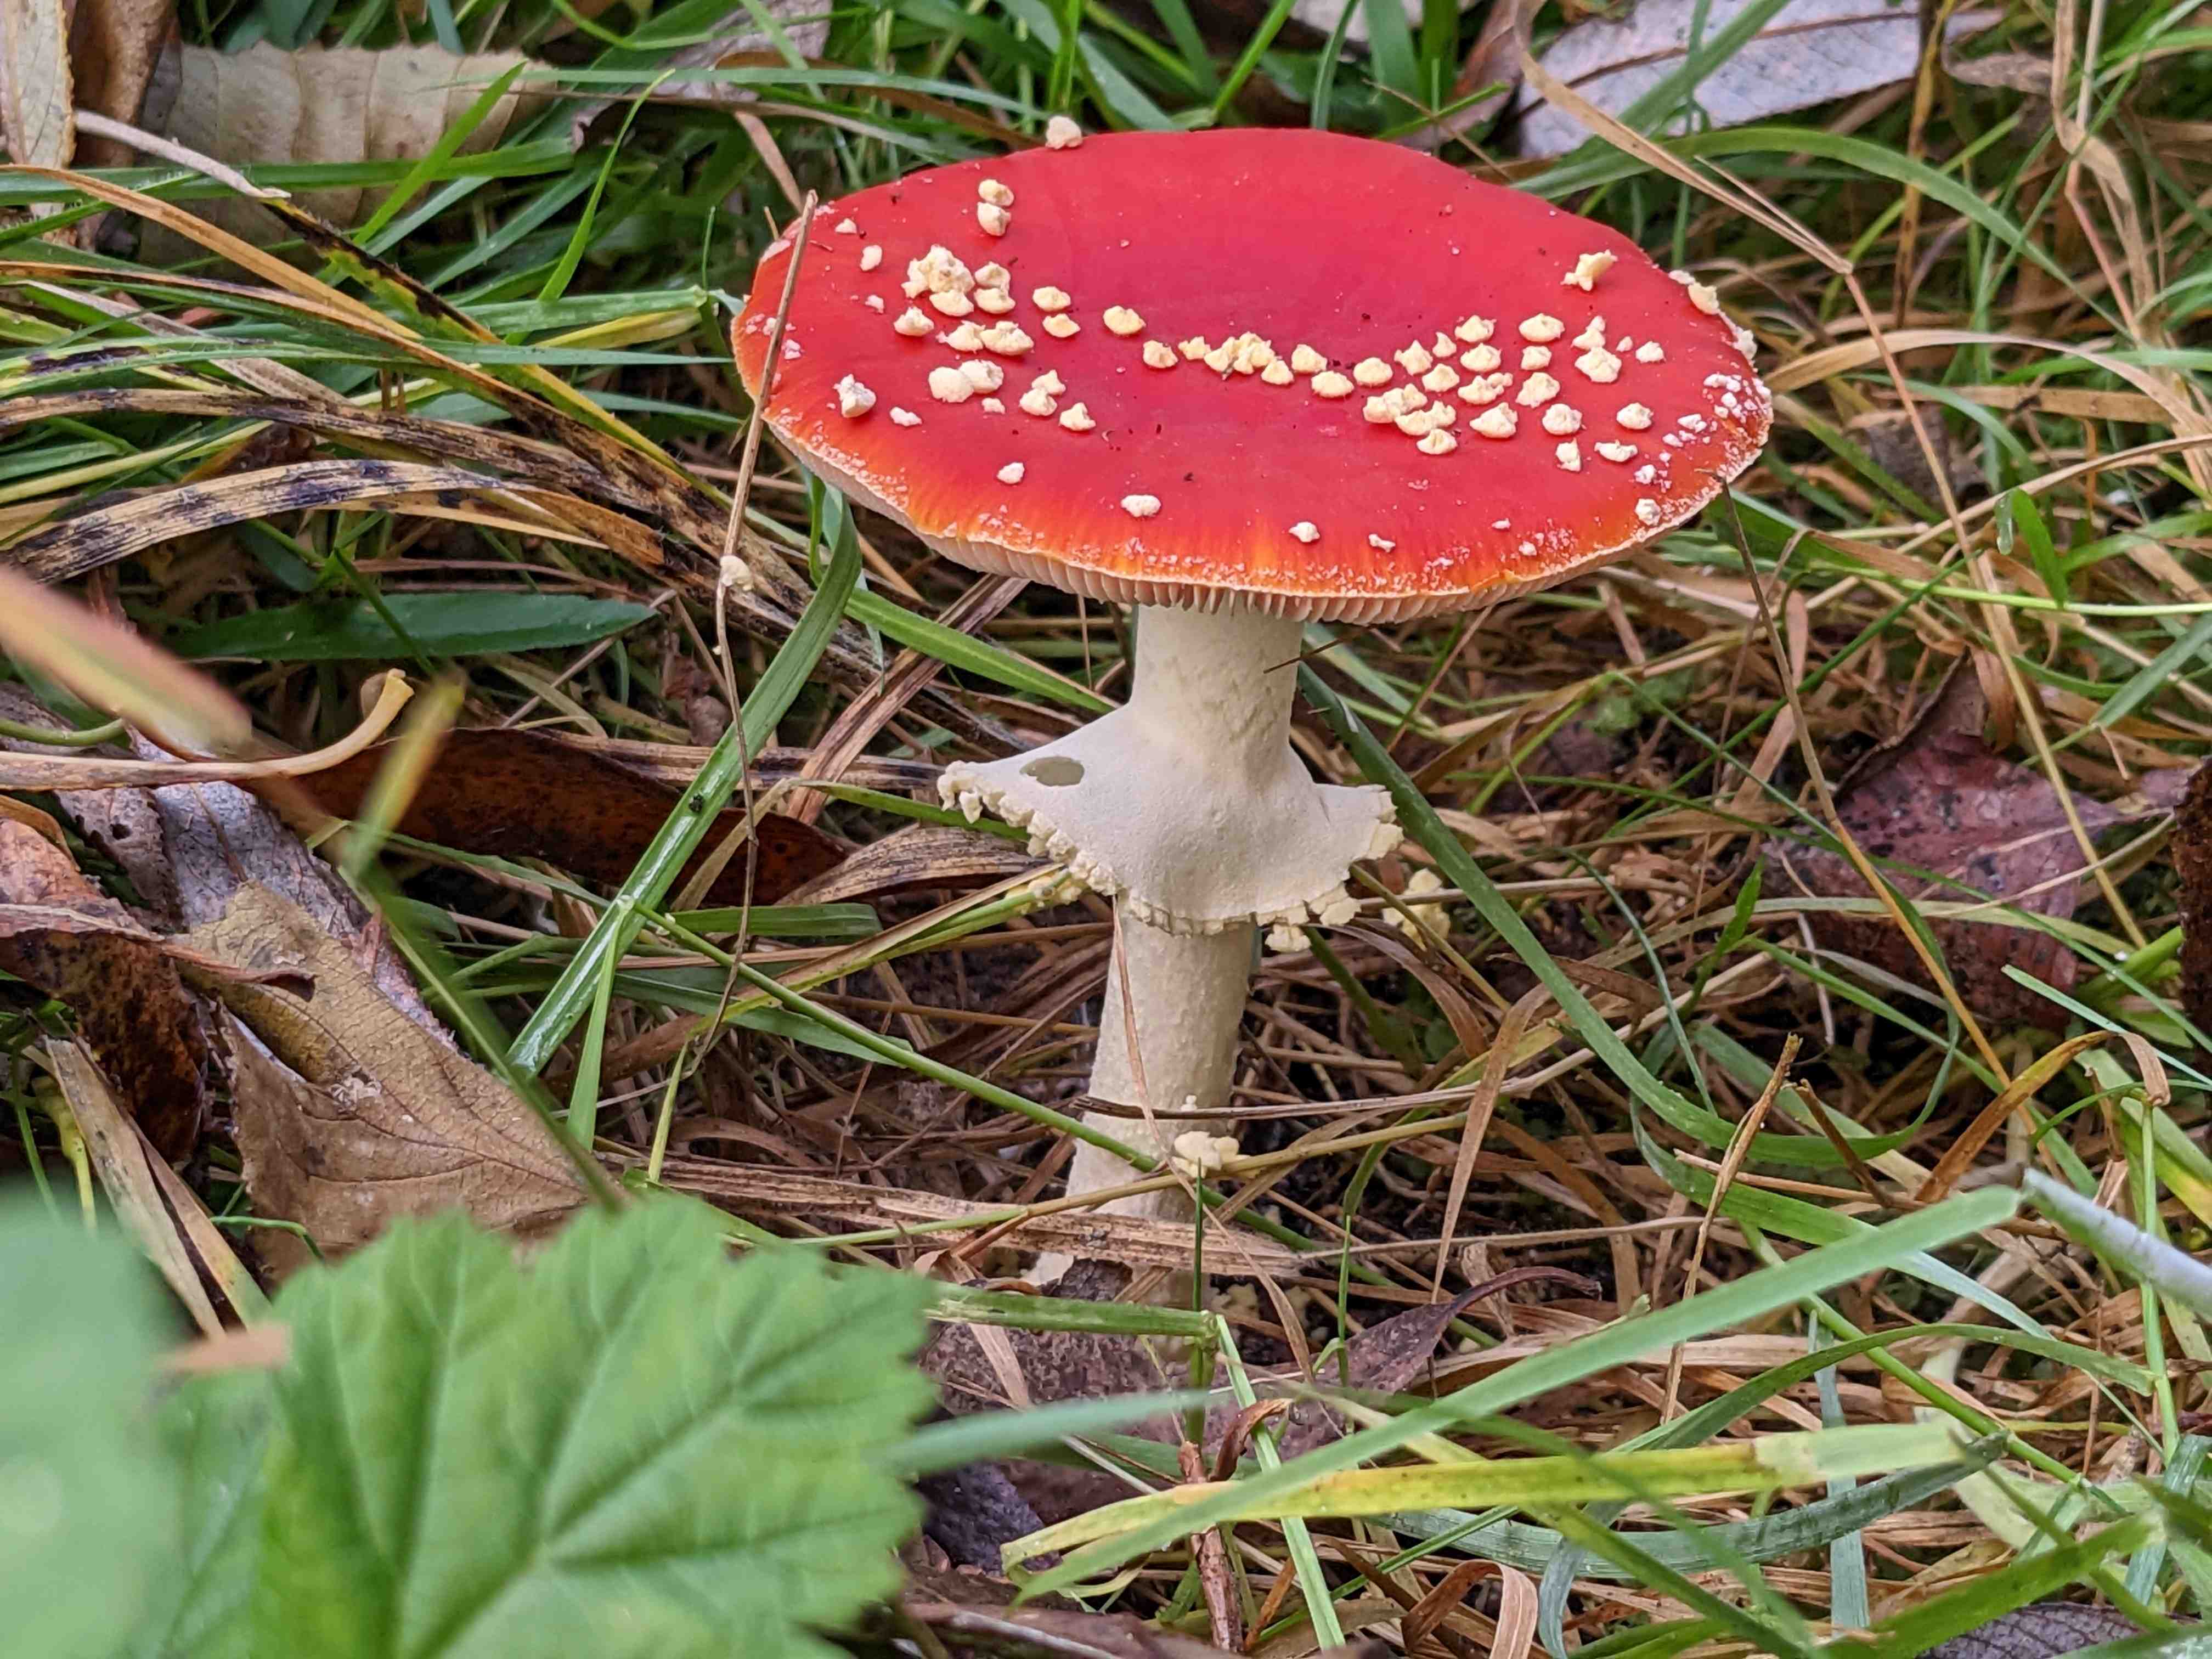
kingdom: Fungi
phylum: Basidiomycota
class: Agaricomycetes
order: Agaricales
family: Amanitaceae
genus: Amanita
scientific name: Amanita muscaria
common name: rød fluesvamp
